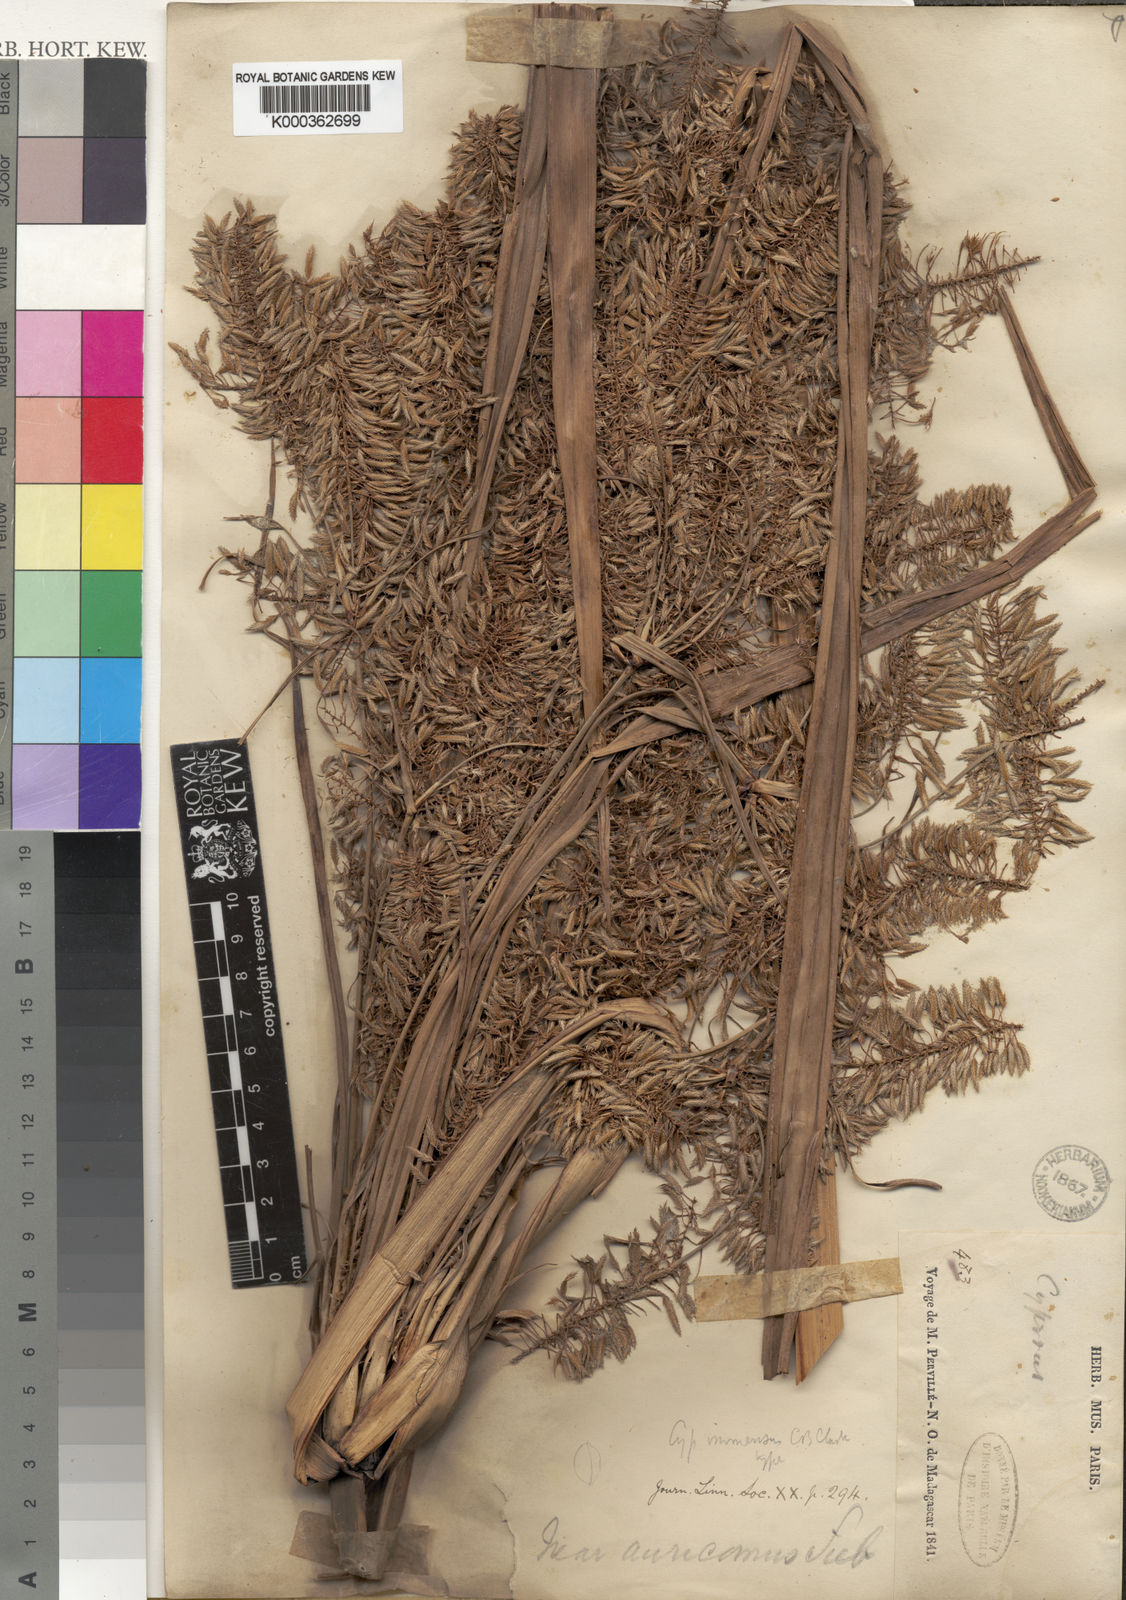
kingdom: Plantae
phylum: Tracheophyta
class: Liliopsida
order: Poales
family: Cyperaceae
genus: Cyperus
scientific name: Cyperus dives
